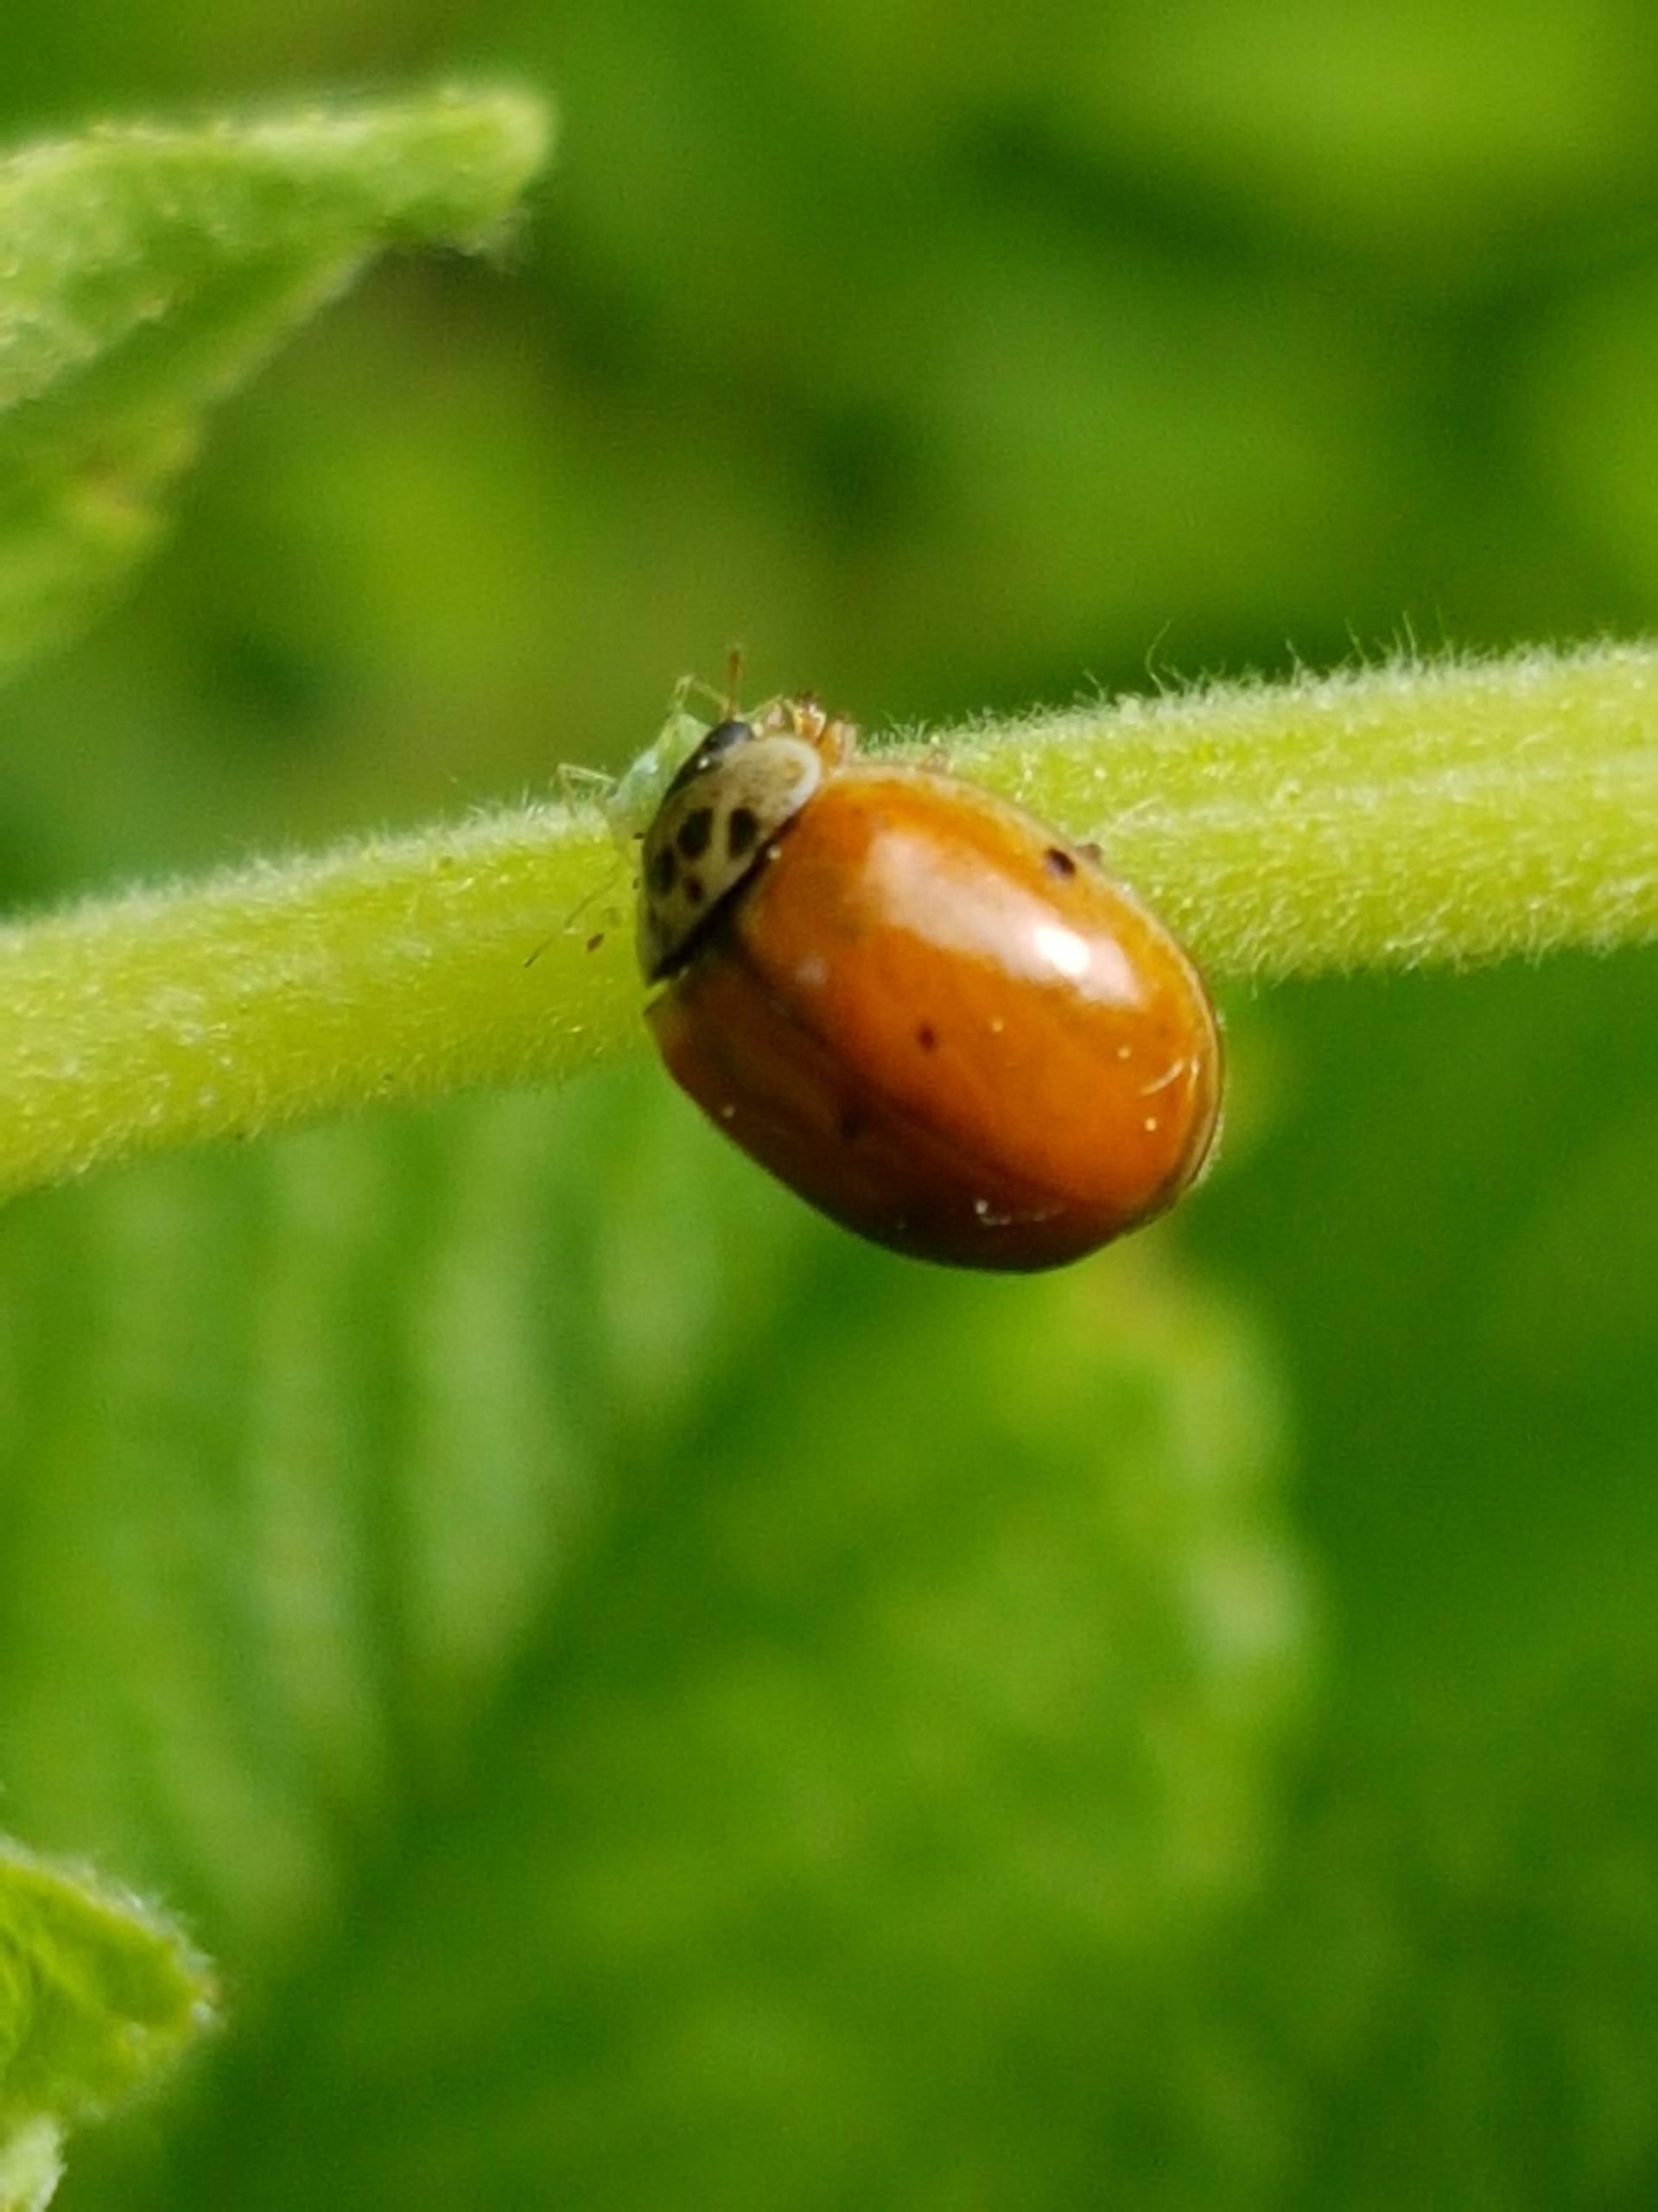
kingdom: Animalia
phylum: Arthropoda
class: Insecta
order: Coleoptera
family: Coccinellidae
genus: Adalia
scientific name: Adalia decempunctata
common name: Tiplettet mariehøne
